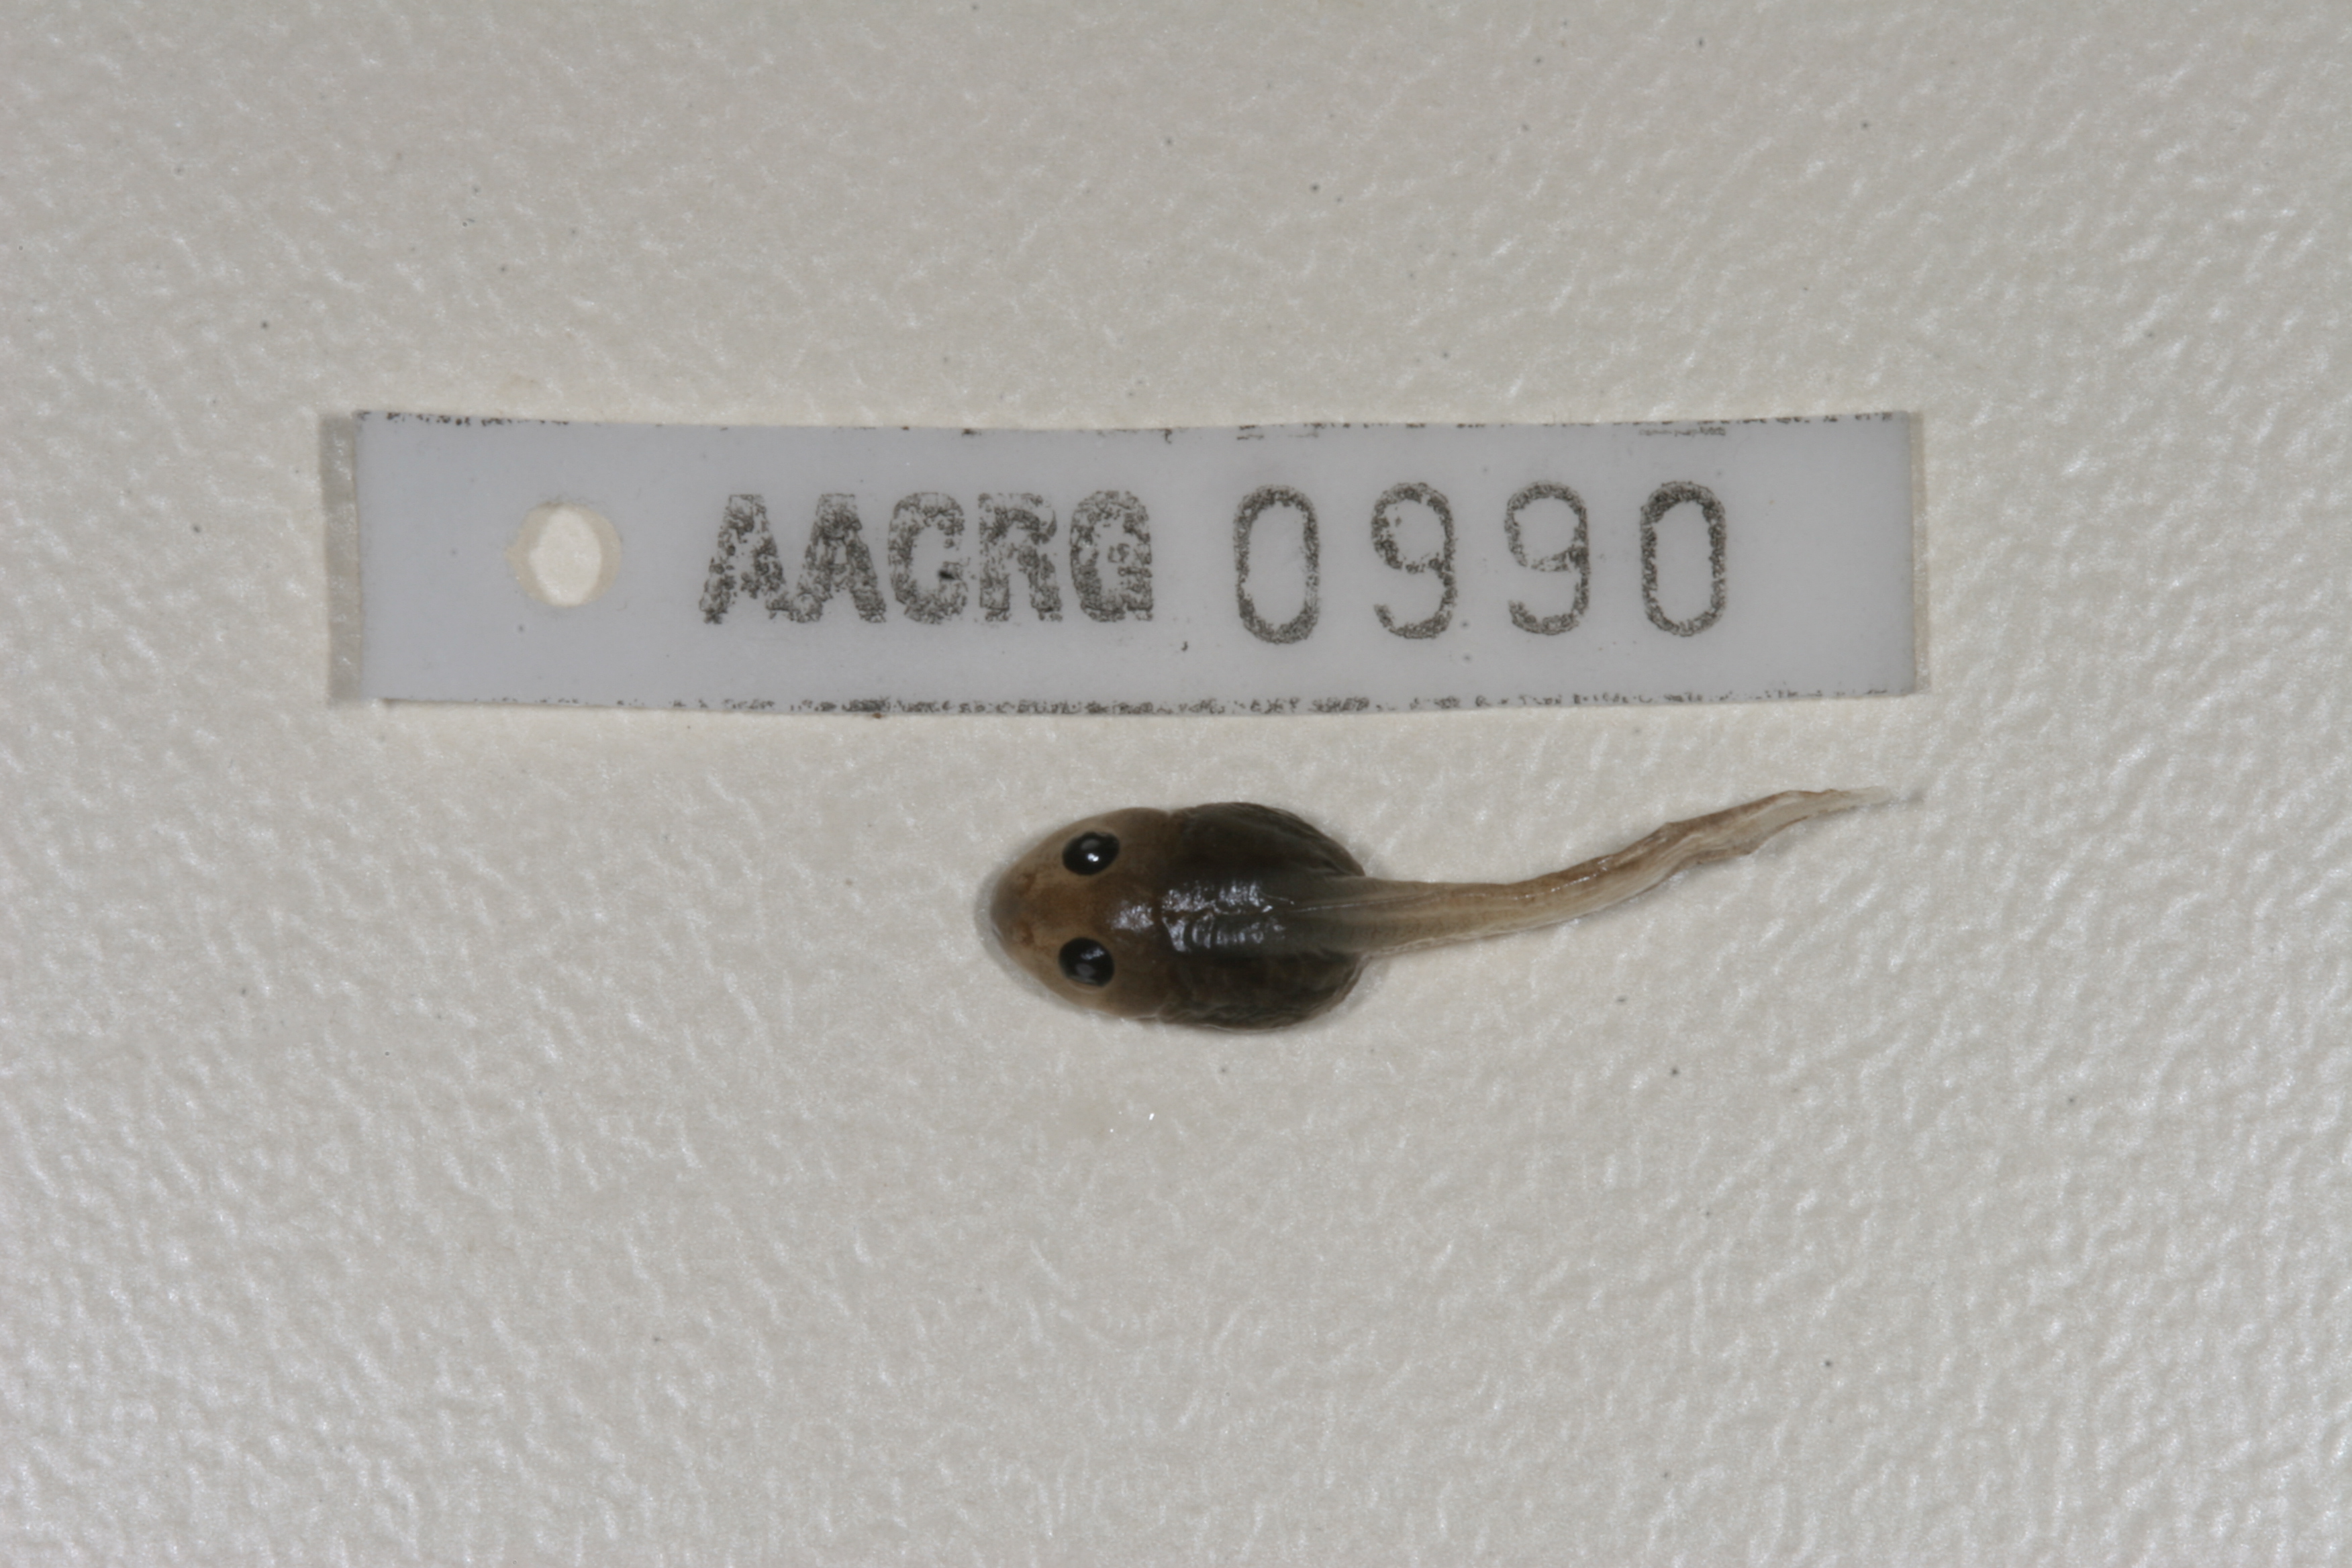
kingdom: Animalia
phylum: Chordata
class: Amphibia
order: Anura
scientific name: Anura
